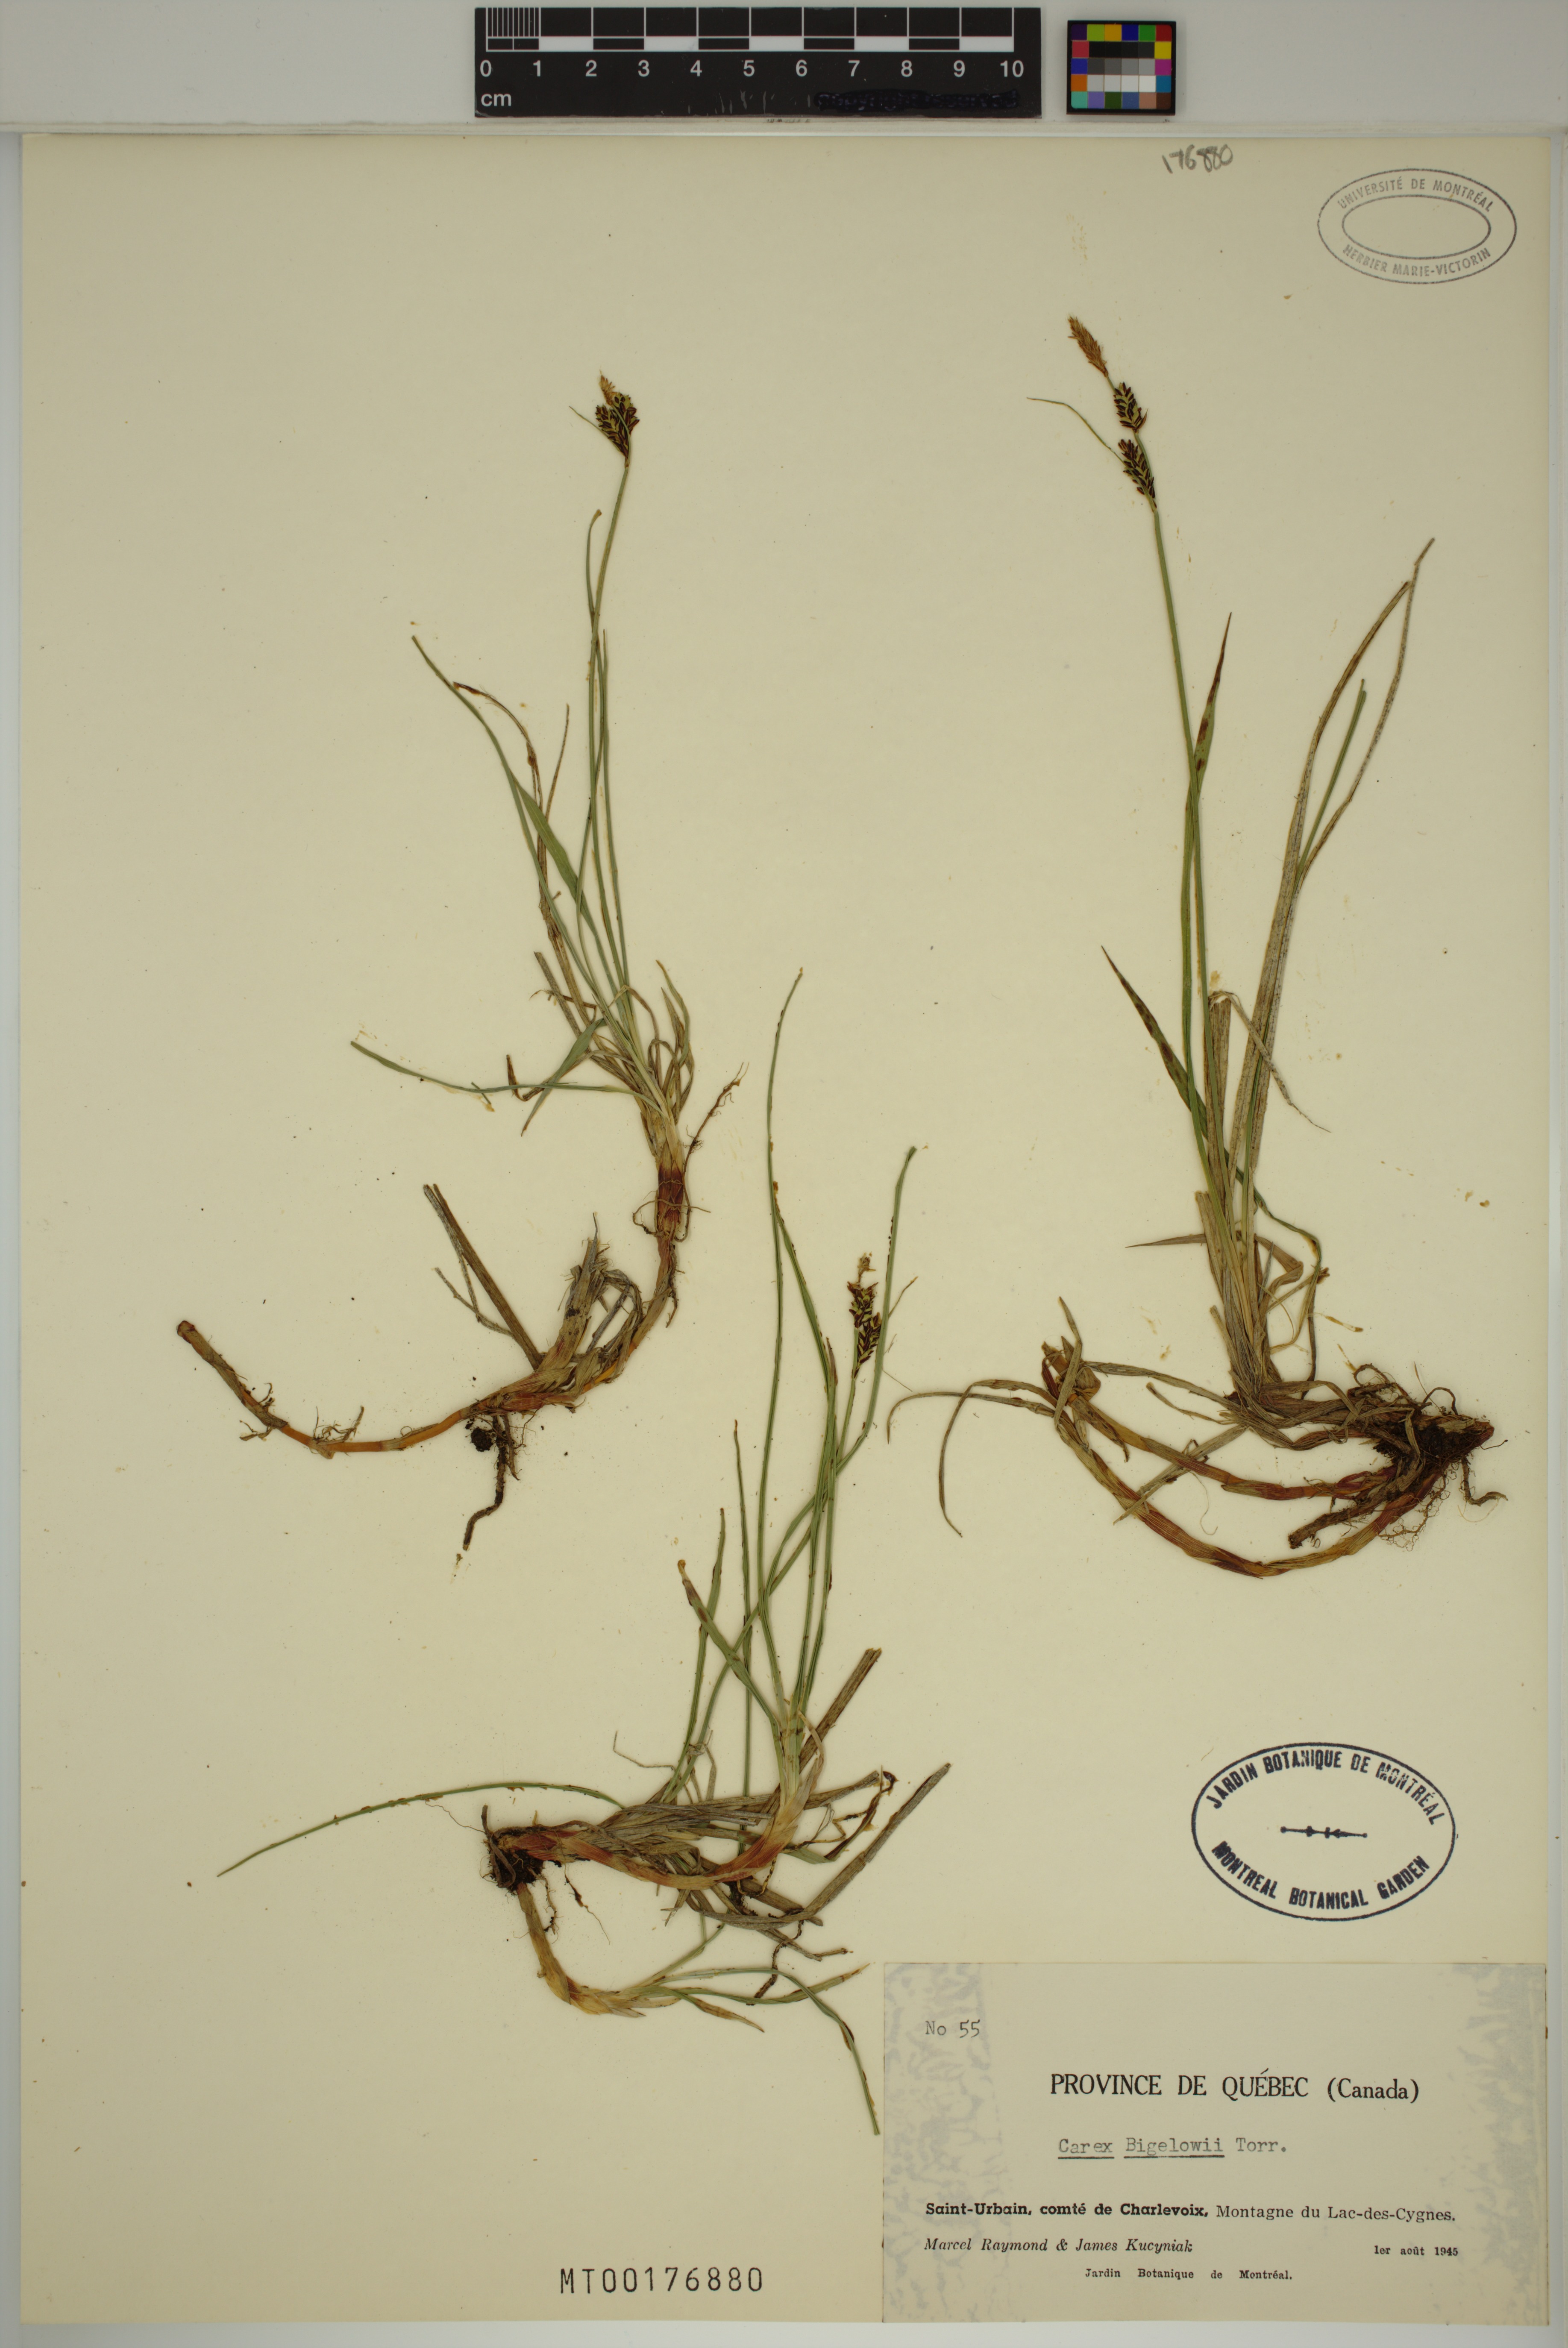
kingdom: Plantae
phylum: Tracheophyta
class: Liliopsida
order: Poales
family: Cyperaceae
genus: Carex
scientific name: Carex bigelowii
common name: Stiff sedge
